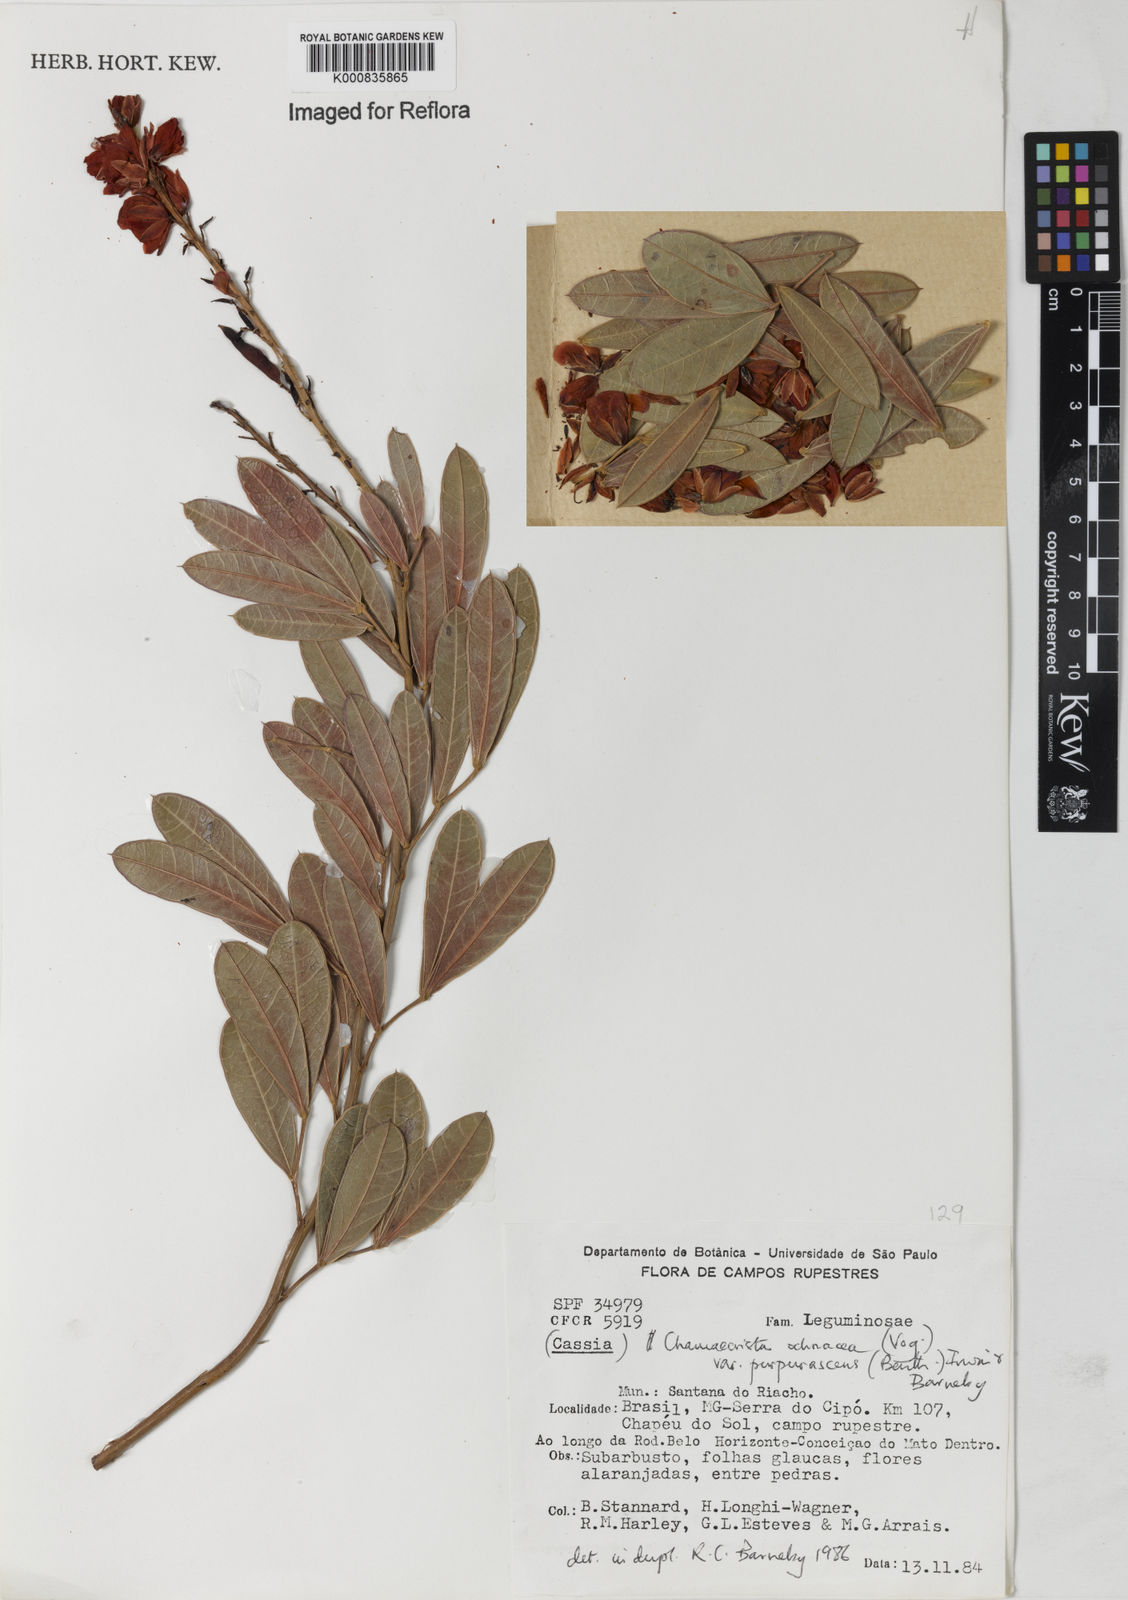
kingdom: Plantae
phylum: Tracheophyta
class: Magnoliopsida
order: Fabales
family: Fabaceae
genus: Chamaecrista
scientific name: Chamaecrista ochnacea
